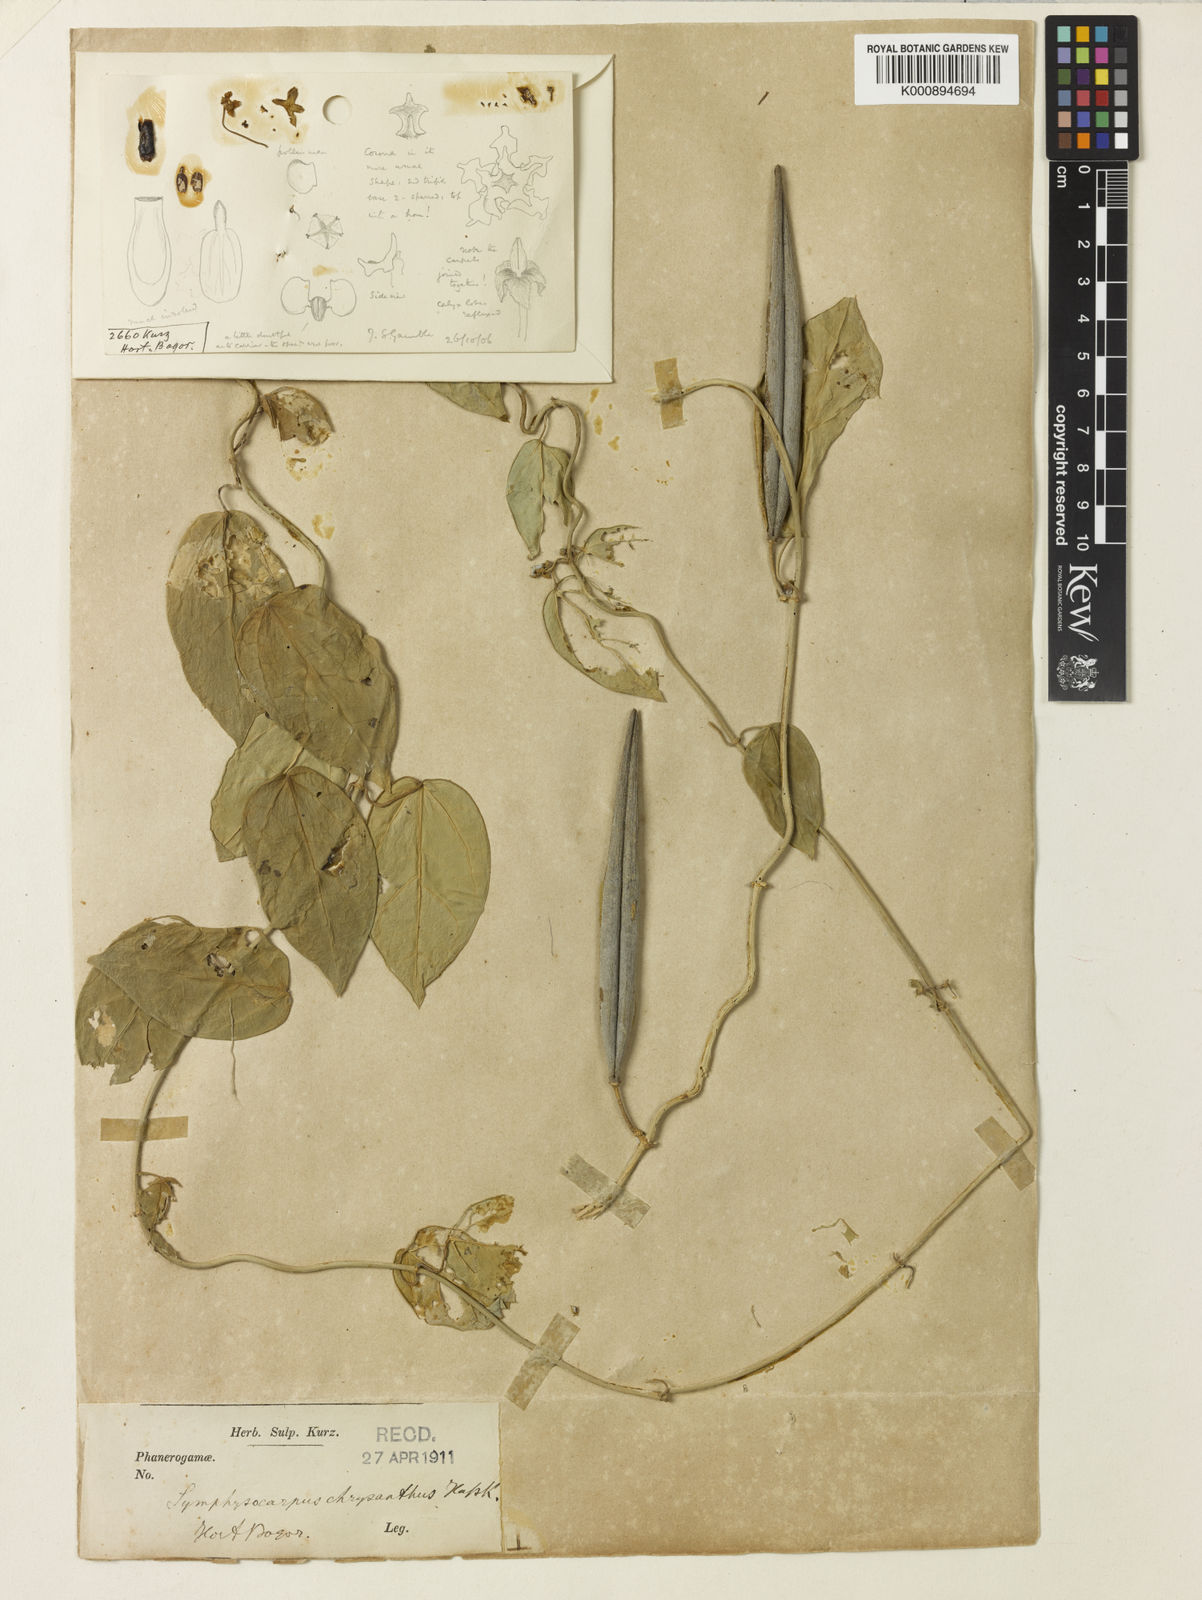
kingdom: Plantae
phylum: Tracheophyta
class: Magnoliopsida
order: Gentianales
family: Apocynaceae
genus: Heterostemma
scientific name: Heterostemma acuminatum
